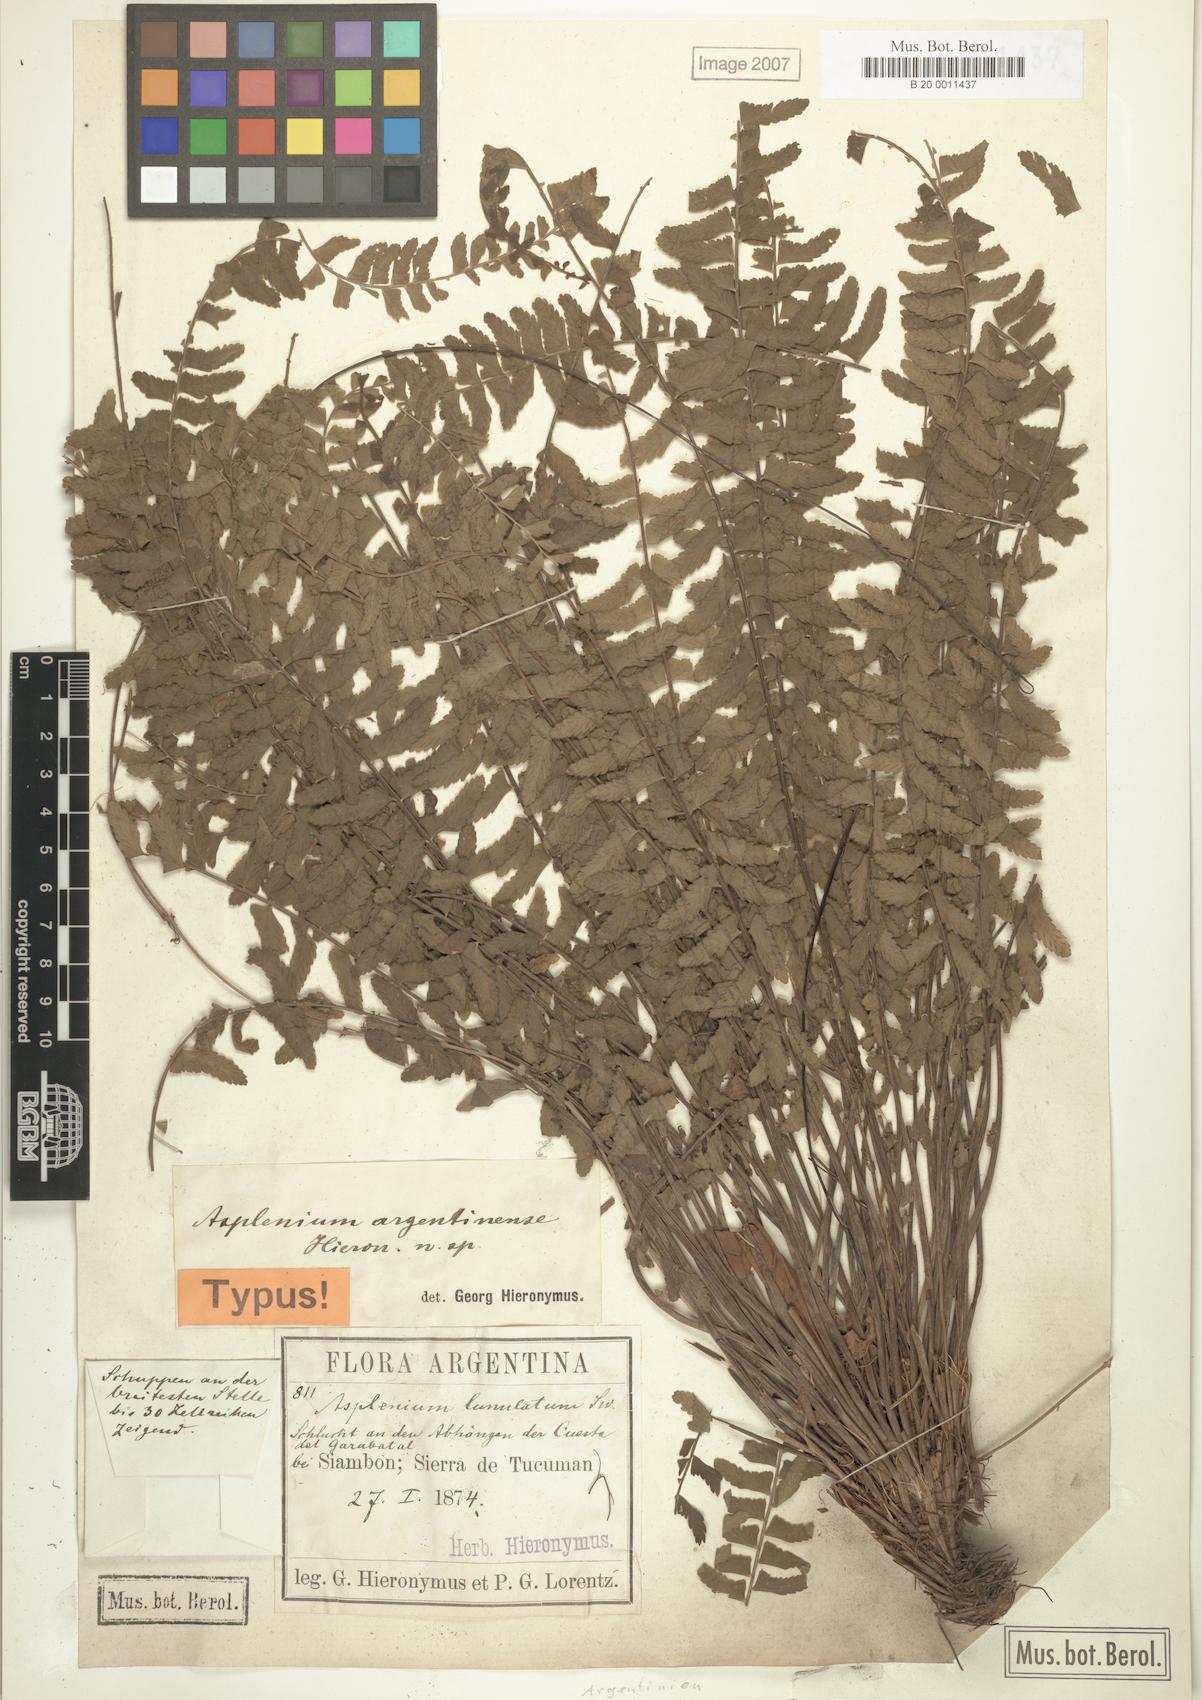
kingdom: Plantae
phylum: Tracheophyta
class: Polypodiopsida
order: Polypodiales
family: Aspleniaceae
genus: Asplenium
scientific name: Asplenium argentinum
